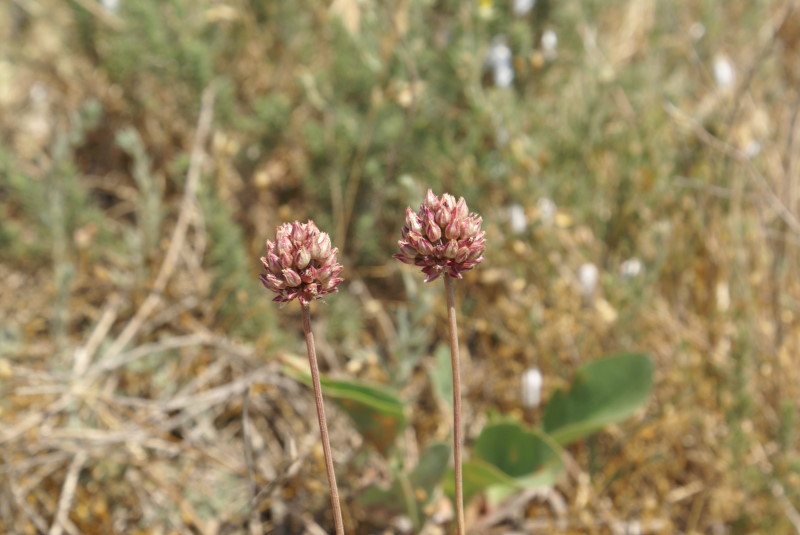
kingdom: Plantae
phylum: Tracheophyta
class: Liliopsida
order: Asparagales
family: Amaryllidaceae
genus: Allium
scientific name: Allium rotundum
